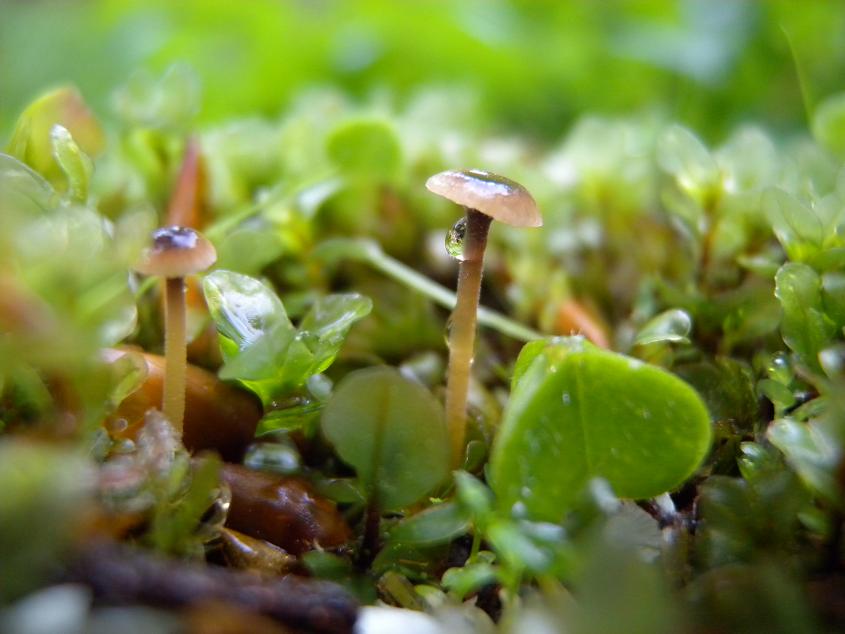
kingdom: Fungi
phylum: Basidiomycota
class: Agaricomycetes
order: Hymenochaetales
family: Rickenellaceae
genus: Rickenella
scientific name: Rickenella swartzii
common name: finstokket mosnavlehat
